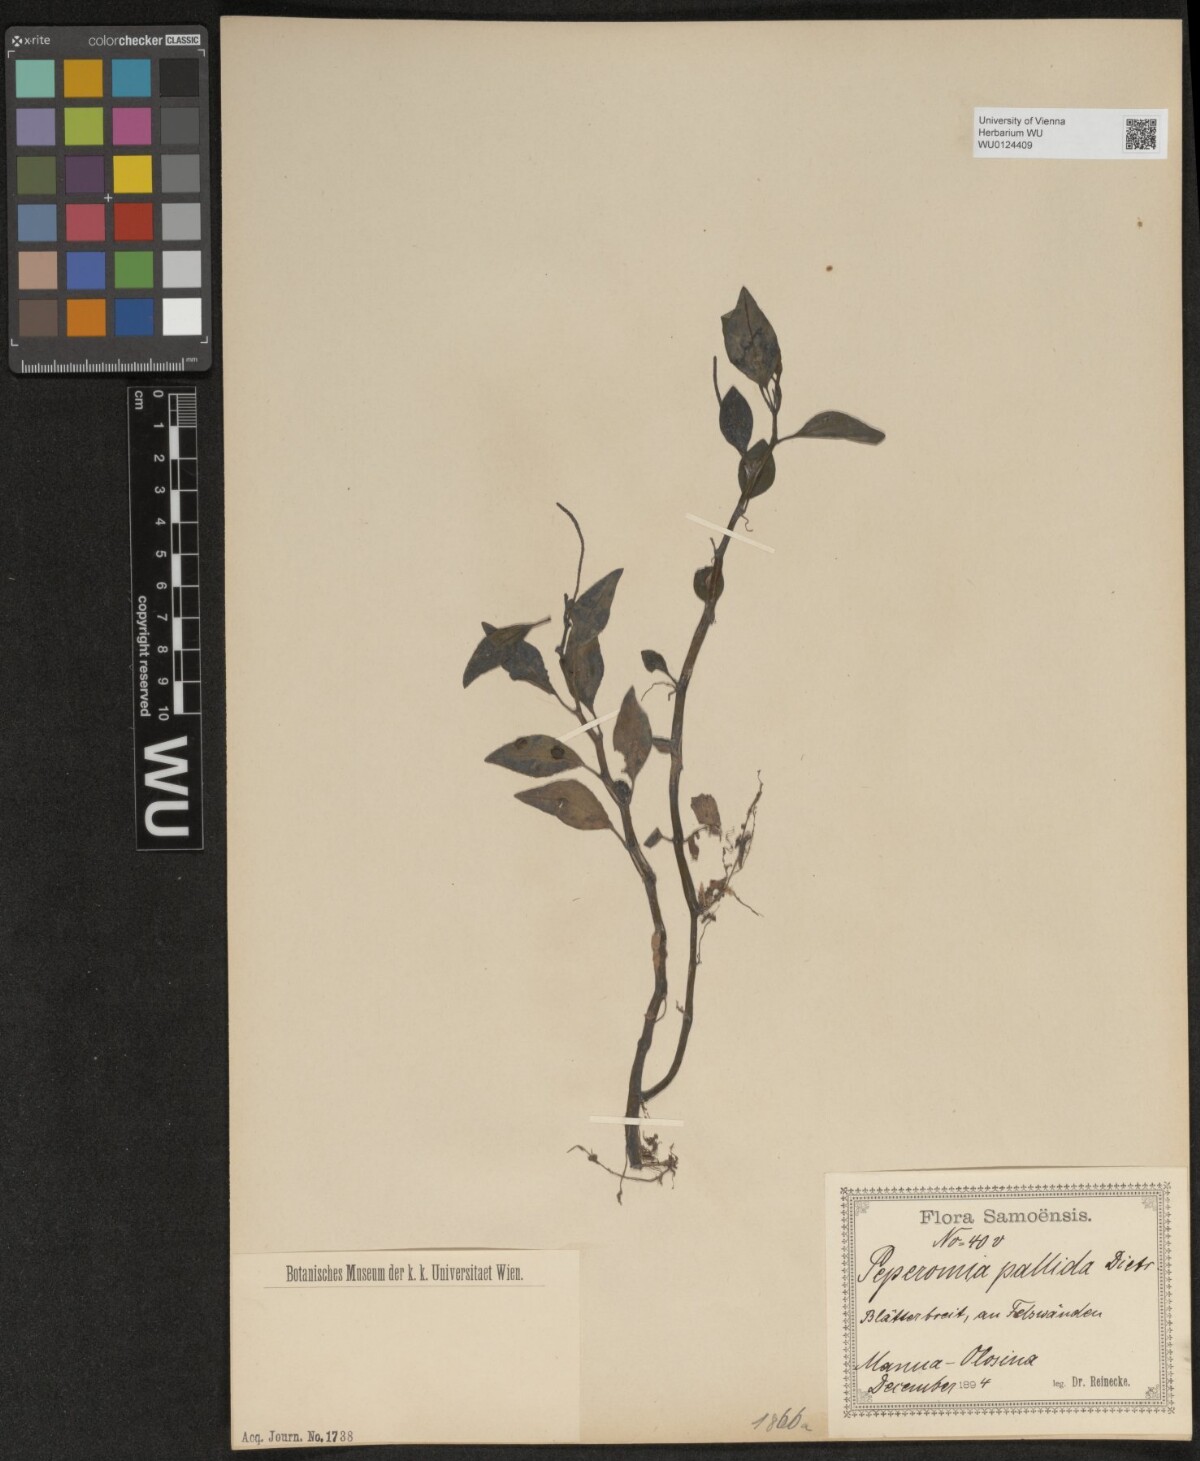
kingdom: Plantae
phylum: Tracheophyta
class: Magnoliopsida
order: Piperales
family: Piperaceae
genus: Peperomia
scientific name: Peperomia pallida
